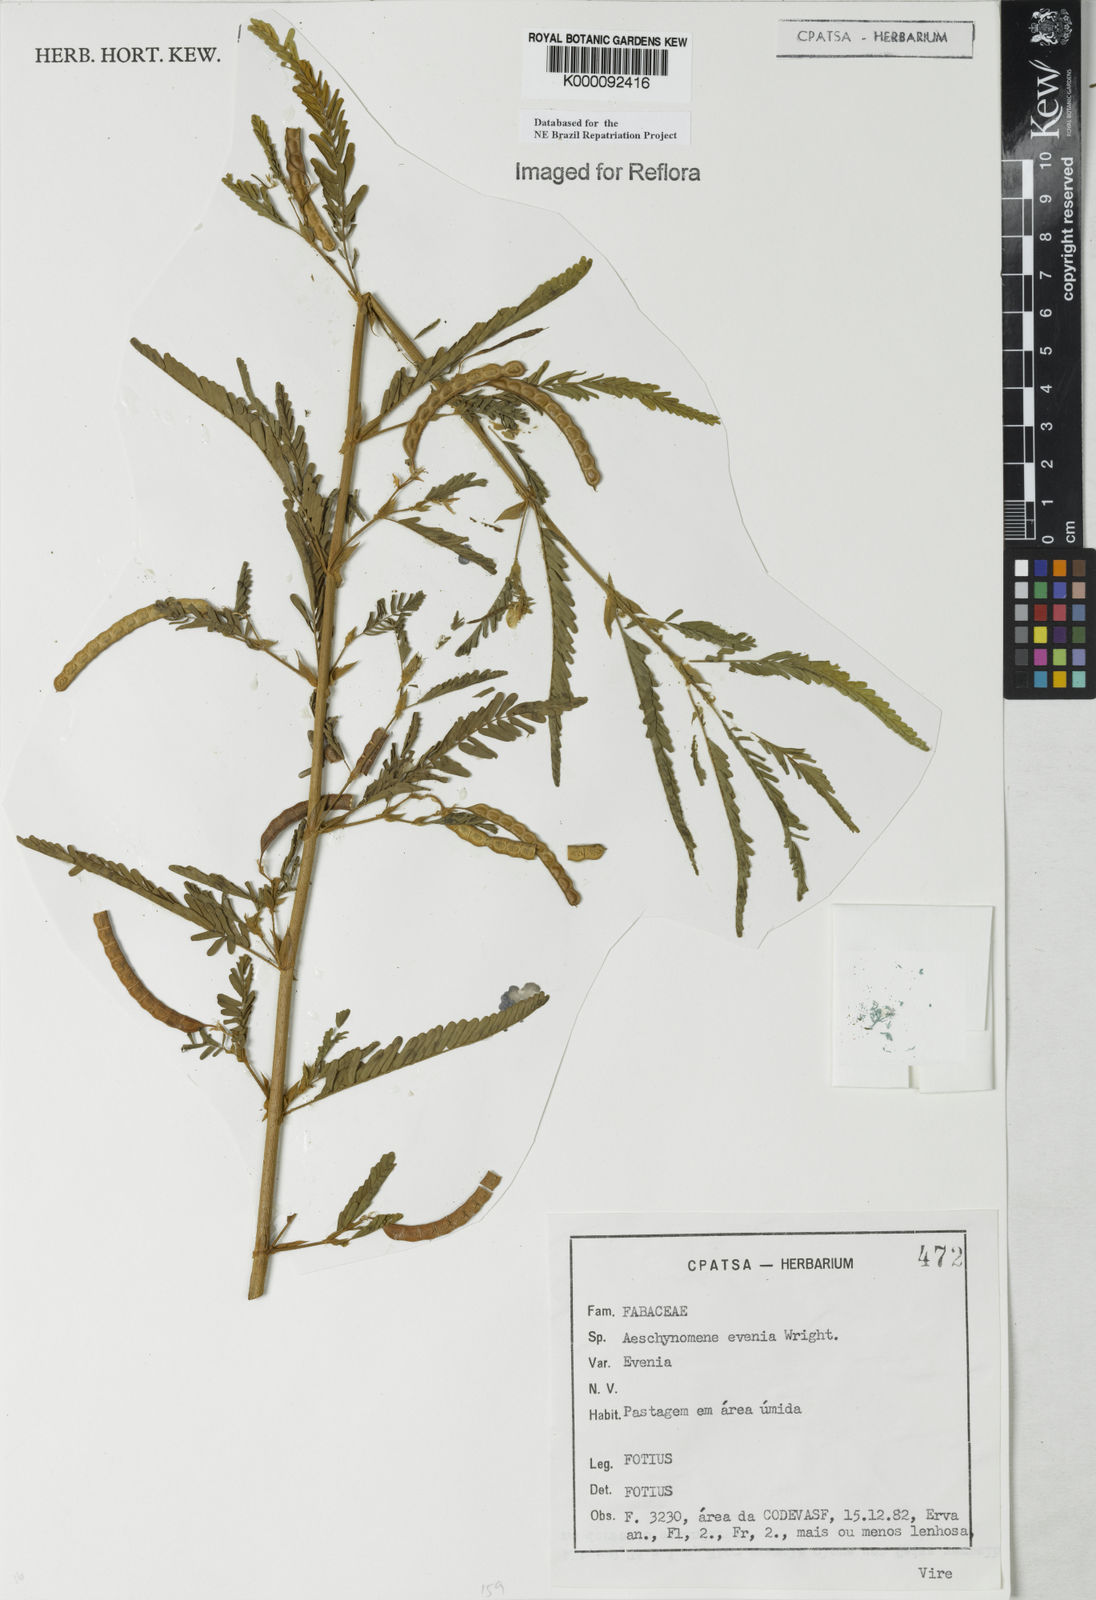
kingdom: Plantae
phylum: Tracheophyta
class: Magnoliopsida
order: Fabales
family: Fabaceae
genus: Aeschynomene
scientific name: Aeschynomene evenia
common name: Shrubby jointvetch
